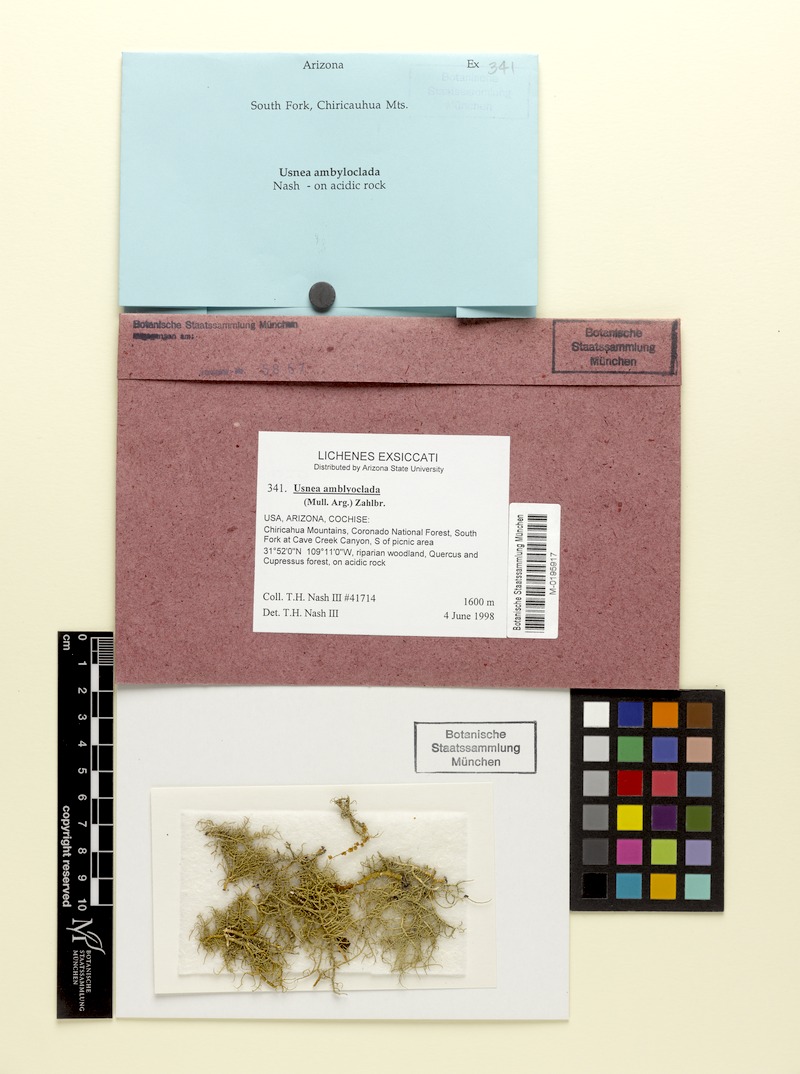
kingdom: Fungi
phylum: Ascomycota
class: Lecanoromycetes
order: Lecanorales
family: Parmeliaceae
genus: Usnea
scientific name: Usnea amblyoclada
